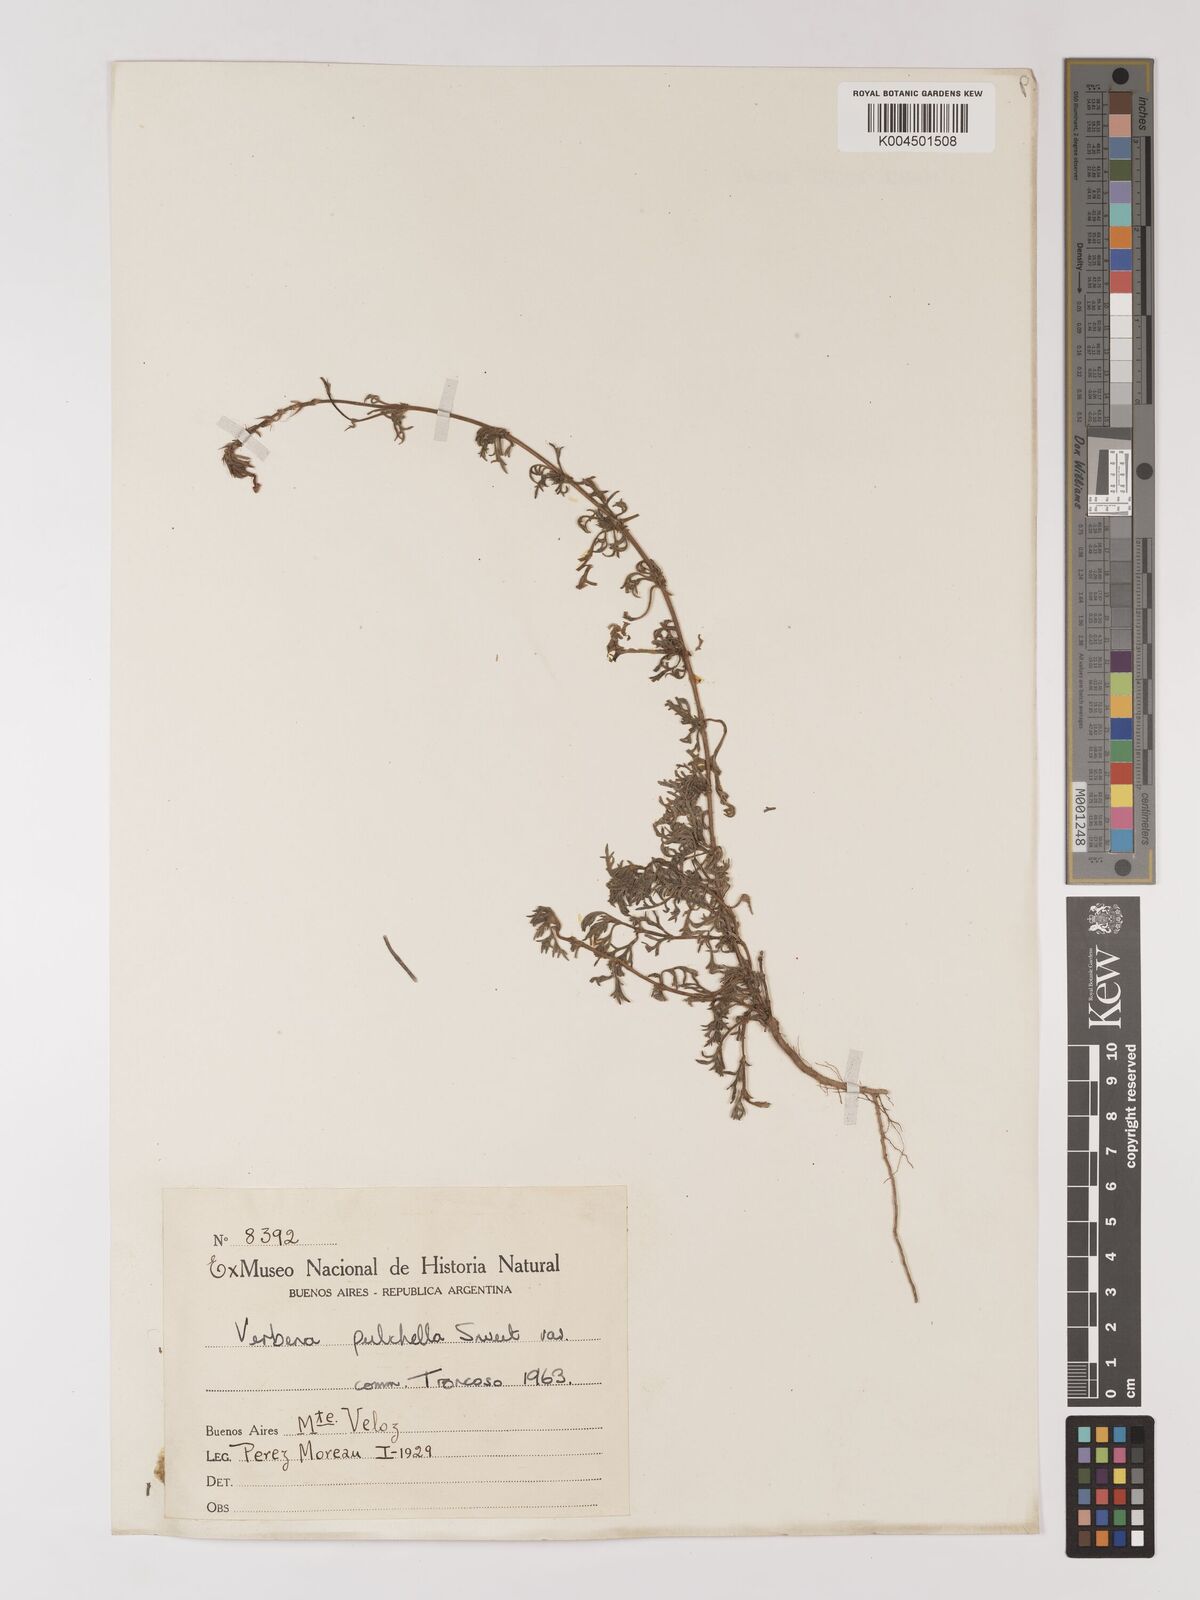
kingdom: Plantae
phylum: Tracheophyta
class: Magnoliopsida
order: Lamiales
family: Verbenaceae
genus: Verbena
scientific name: Verbena tenera
